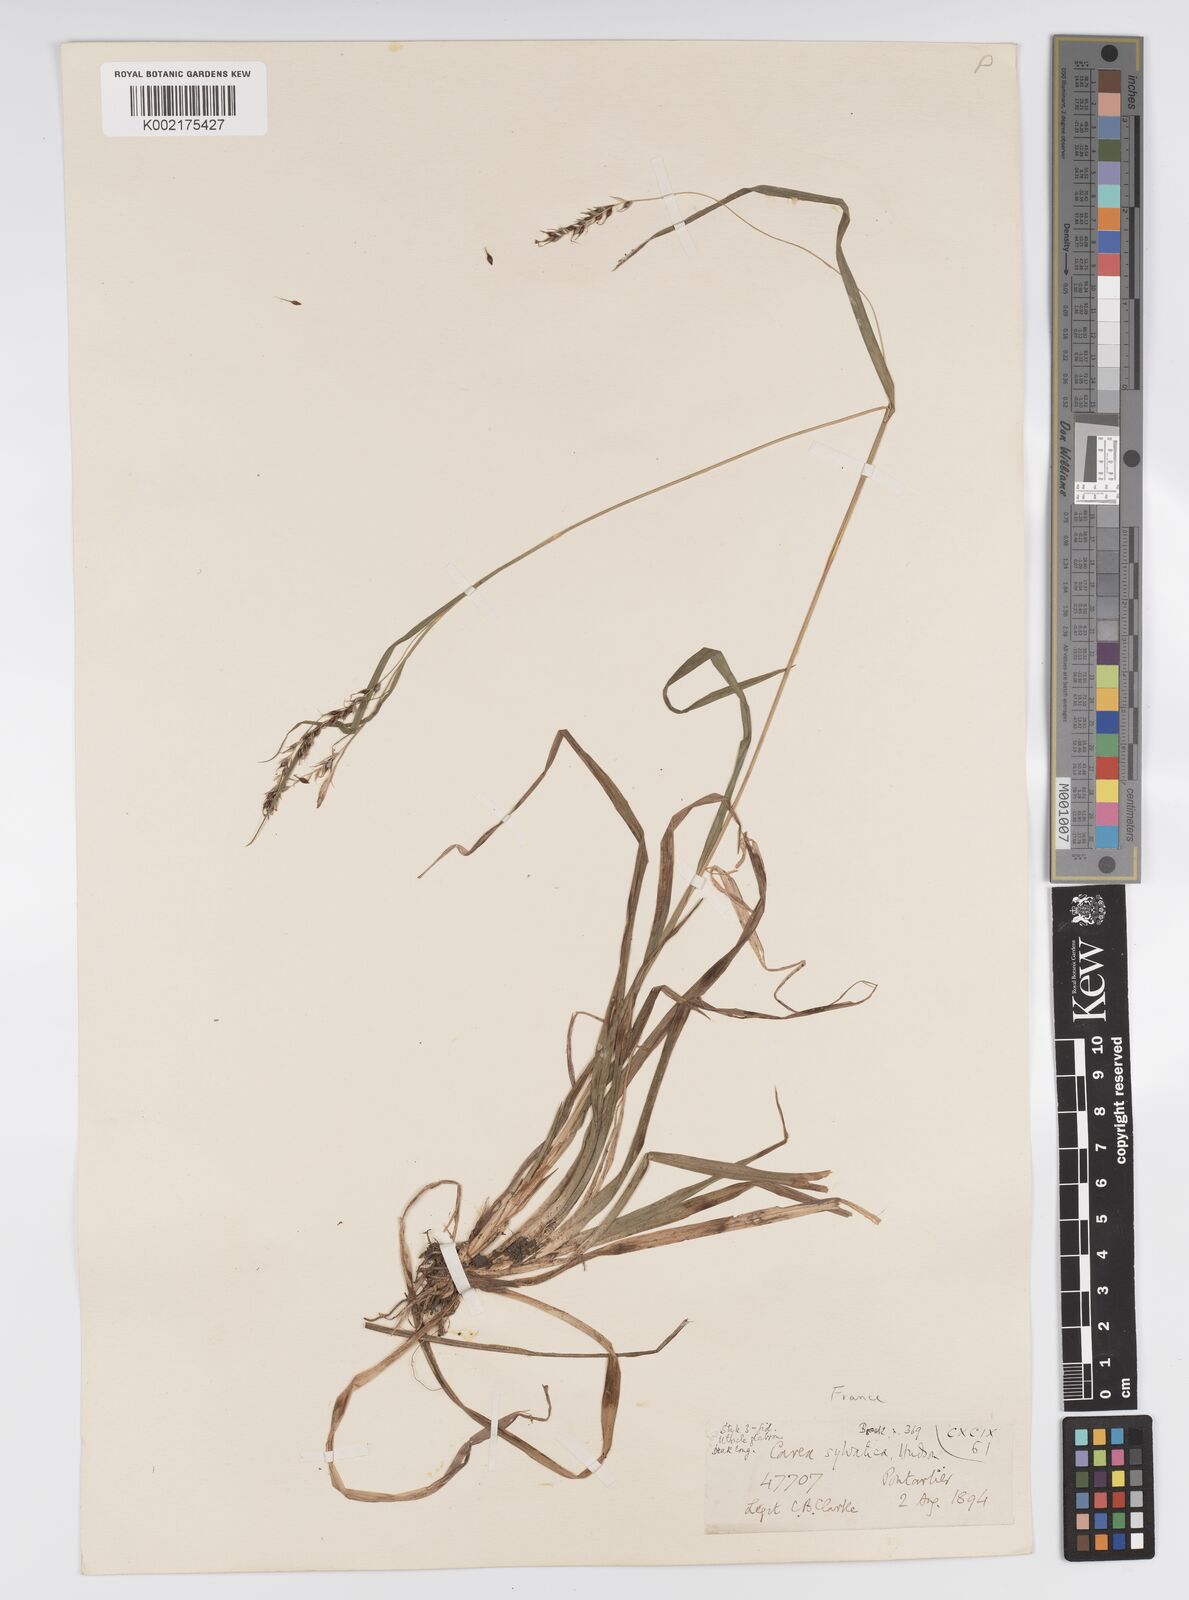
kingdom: Plantae
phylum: Tracheophyta
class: Liliopsida
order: Poales
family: Cyperaceae
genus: Carex
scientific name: Carex sylvatica
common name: Wood-sedge
